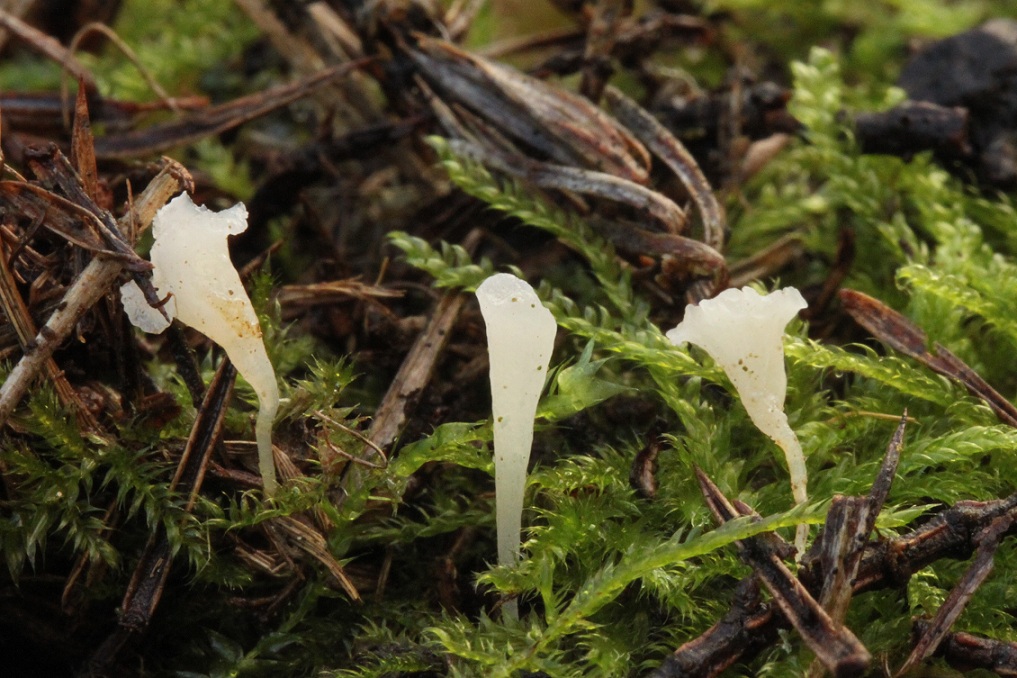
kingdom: Fungi
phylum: Basidiomycota
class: Agaricomycetes
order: Agaricales
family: Clavariaceae
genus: Clavicorona
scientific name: Clavicorona taxophila
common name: trompetkølle
